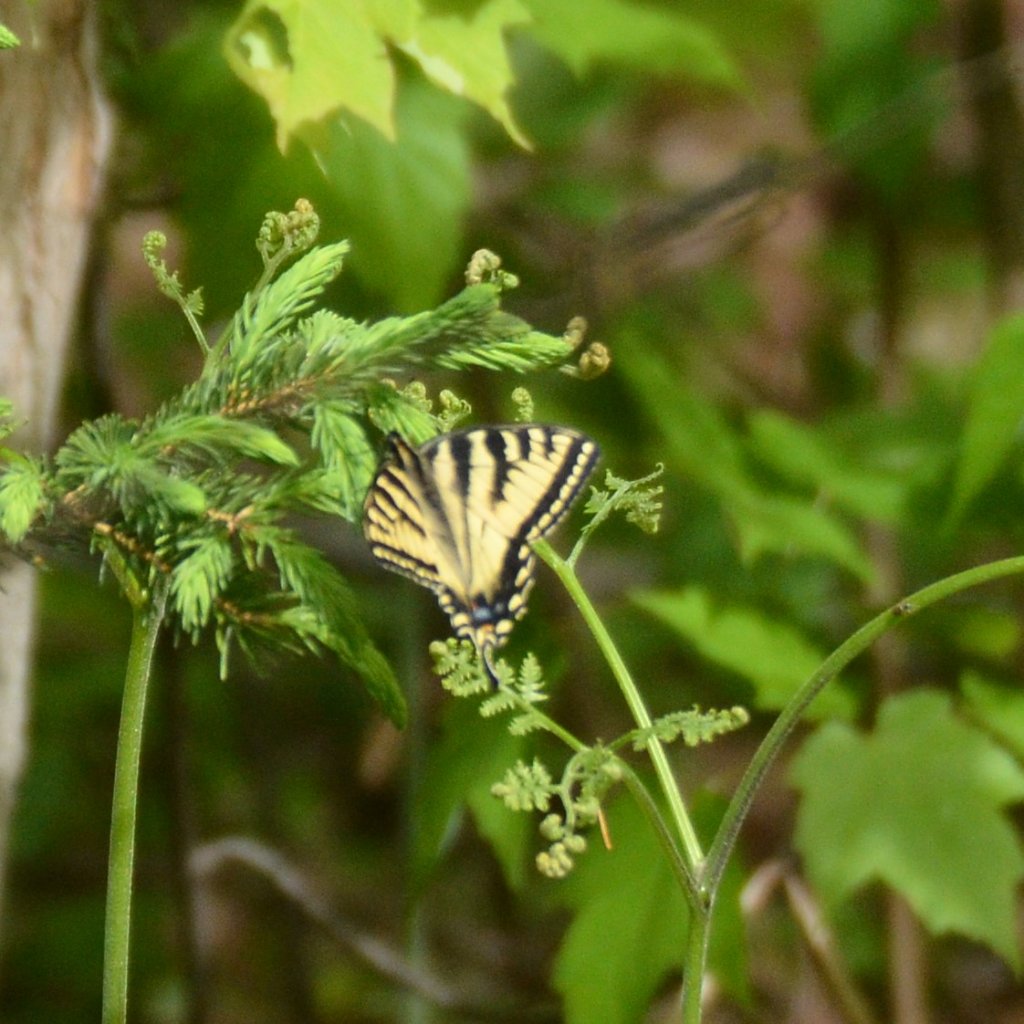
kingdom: Animalia
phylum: Arthropoda
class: Insecta
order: Lepidoptera
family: Papilionidae
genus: Pterourus
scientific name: Pterourus canadensis
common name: Canadian Tiger Swallowtail
